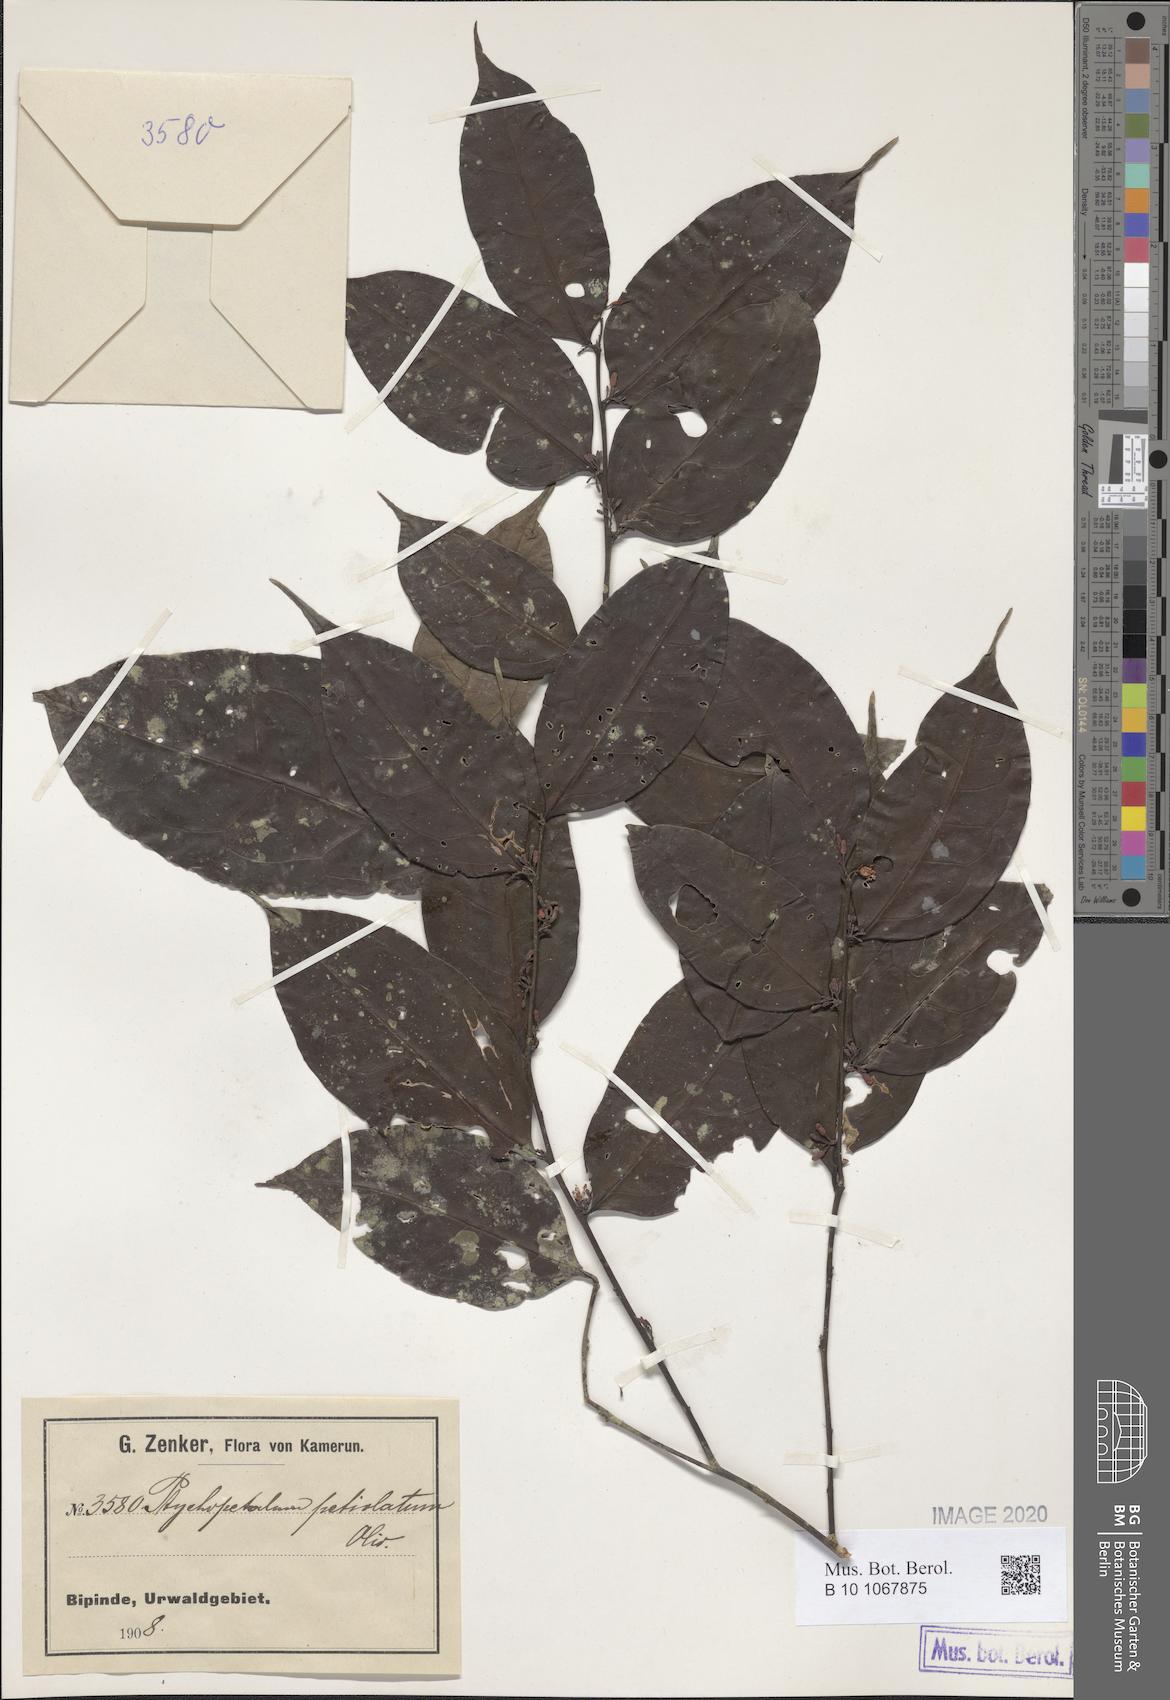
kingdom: Plantae
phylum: Tracheophyta
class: Magnoliopsida
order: Santalales
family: Olacaceae
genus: Ptychopetalum
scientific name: Ptychopetalum petiolatum
